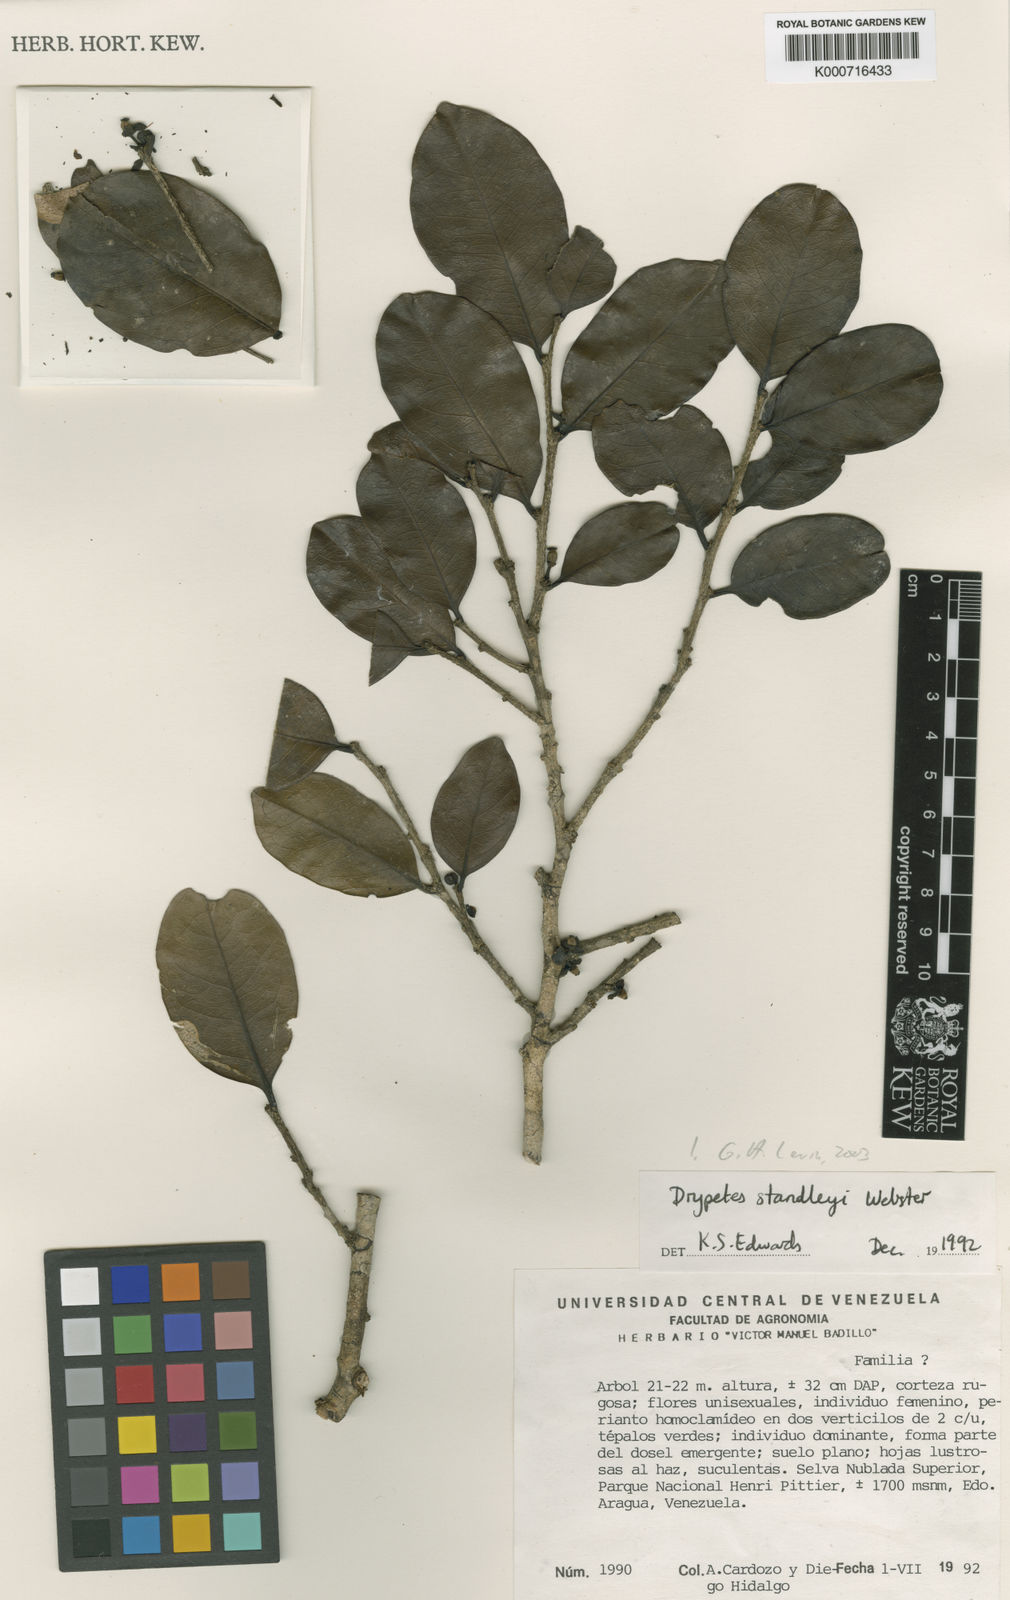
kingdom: Plantae
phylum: Tracheophyta
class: Magnoliopsida
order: Malpighiales
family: Putranjivaceae
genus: Drypetes
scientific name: Drypetes standleyi
